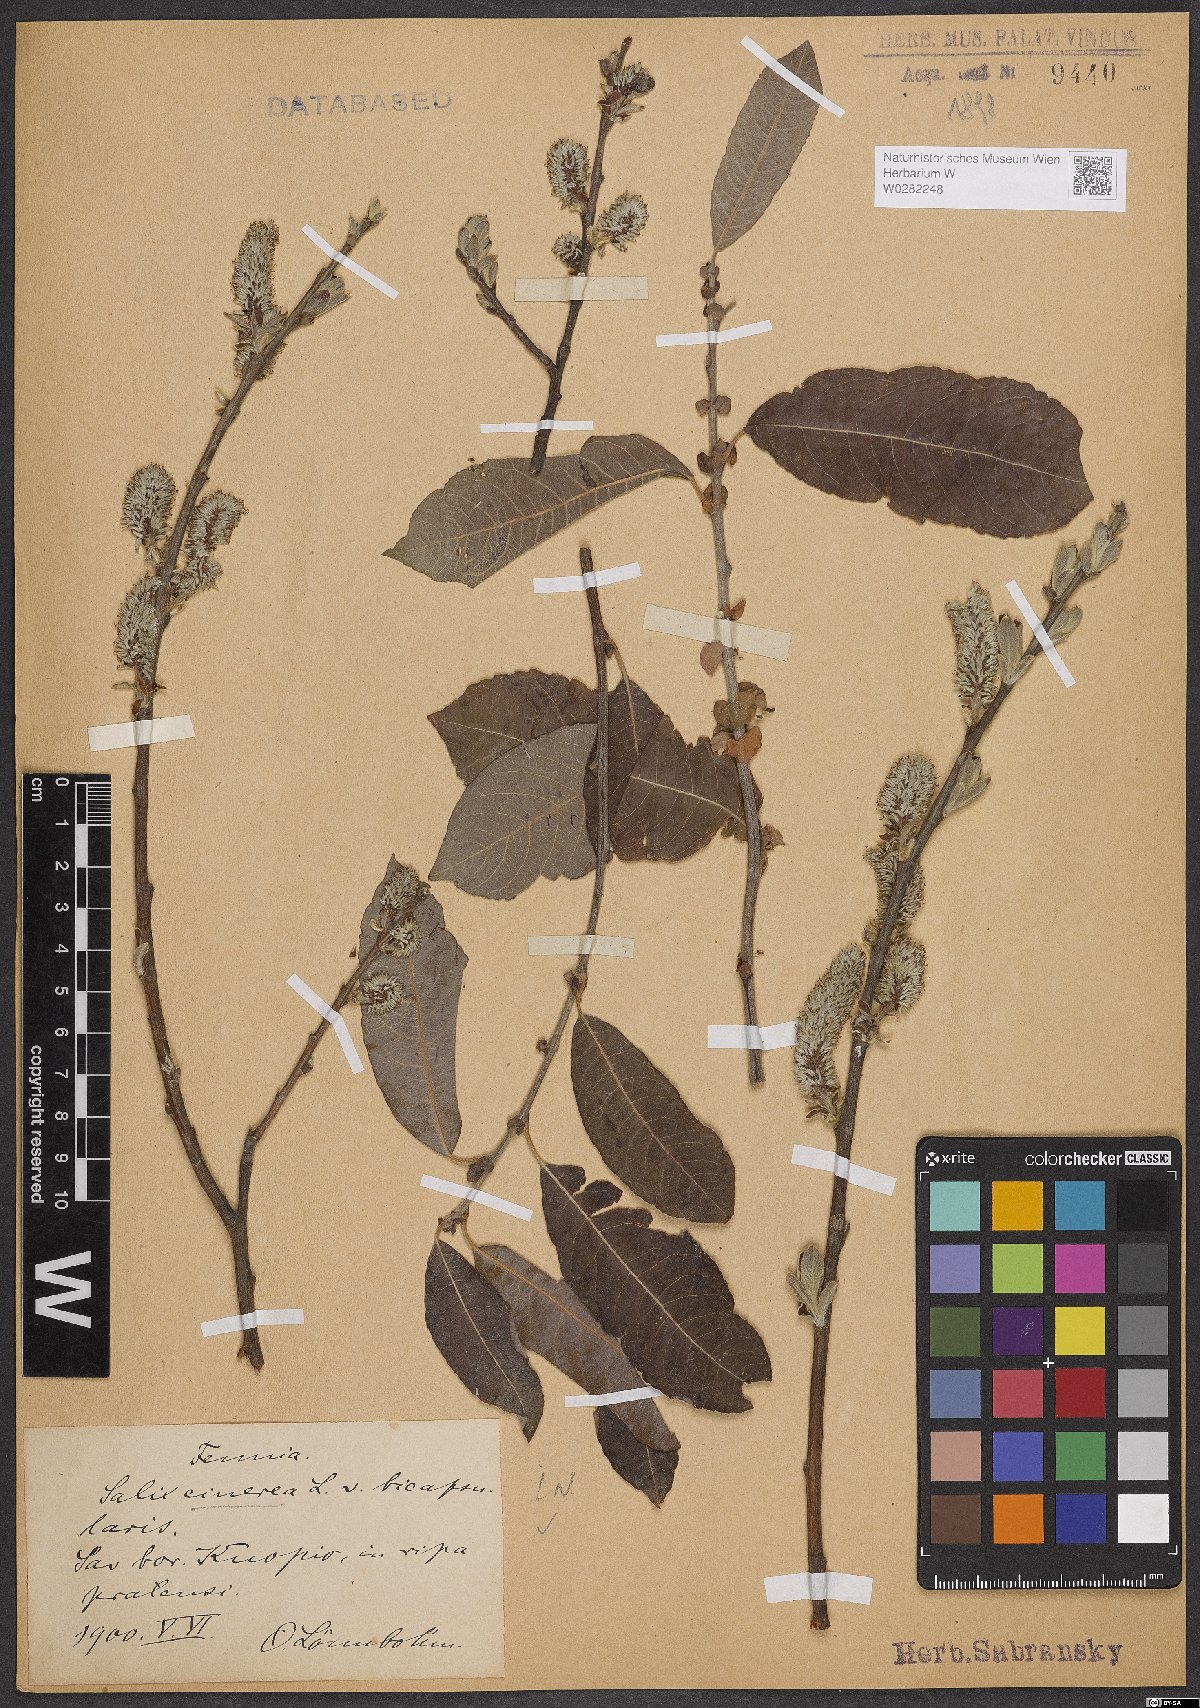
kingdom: Plantae
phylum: Tracheophyta
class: Magnoliopsida
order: Malpighiales
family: Salicaceae
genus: Salix
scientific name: Salix cinerea
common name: Common sallow
